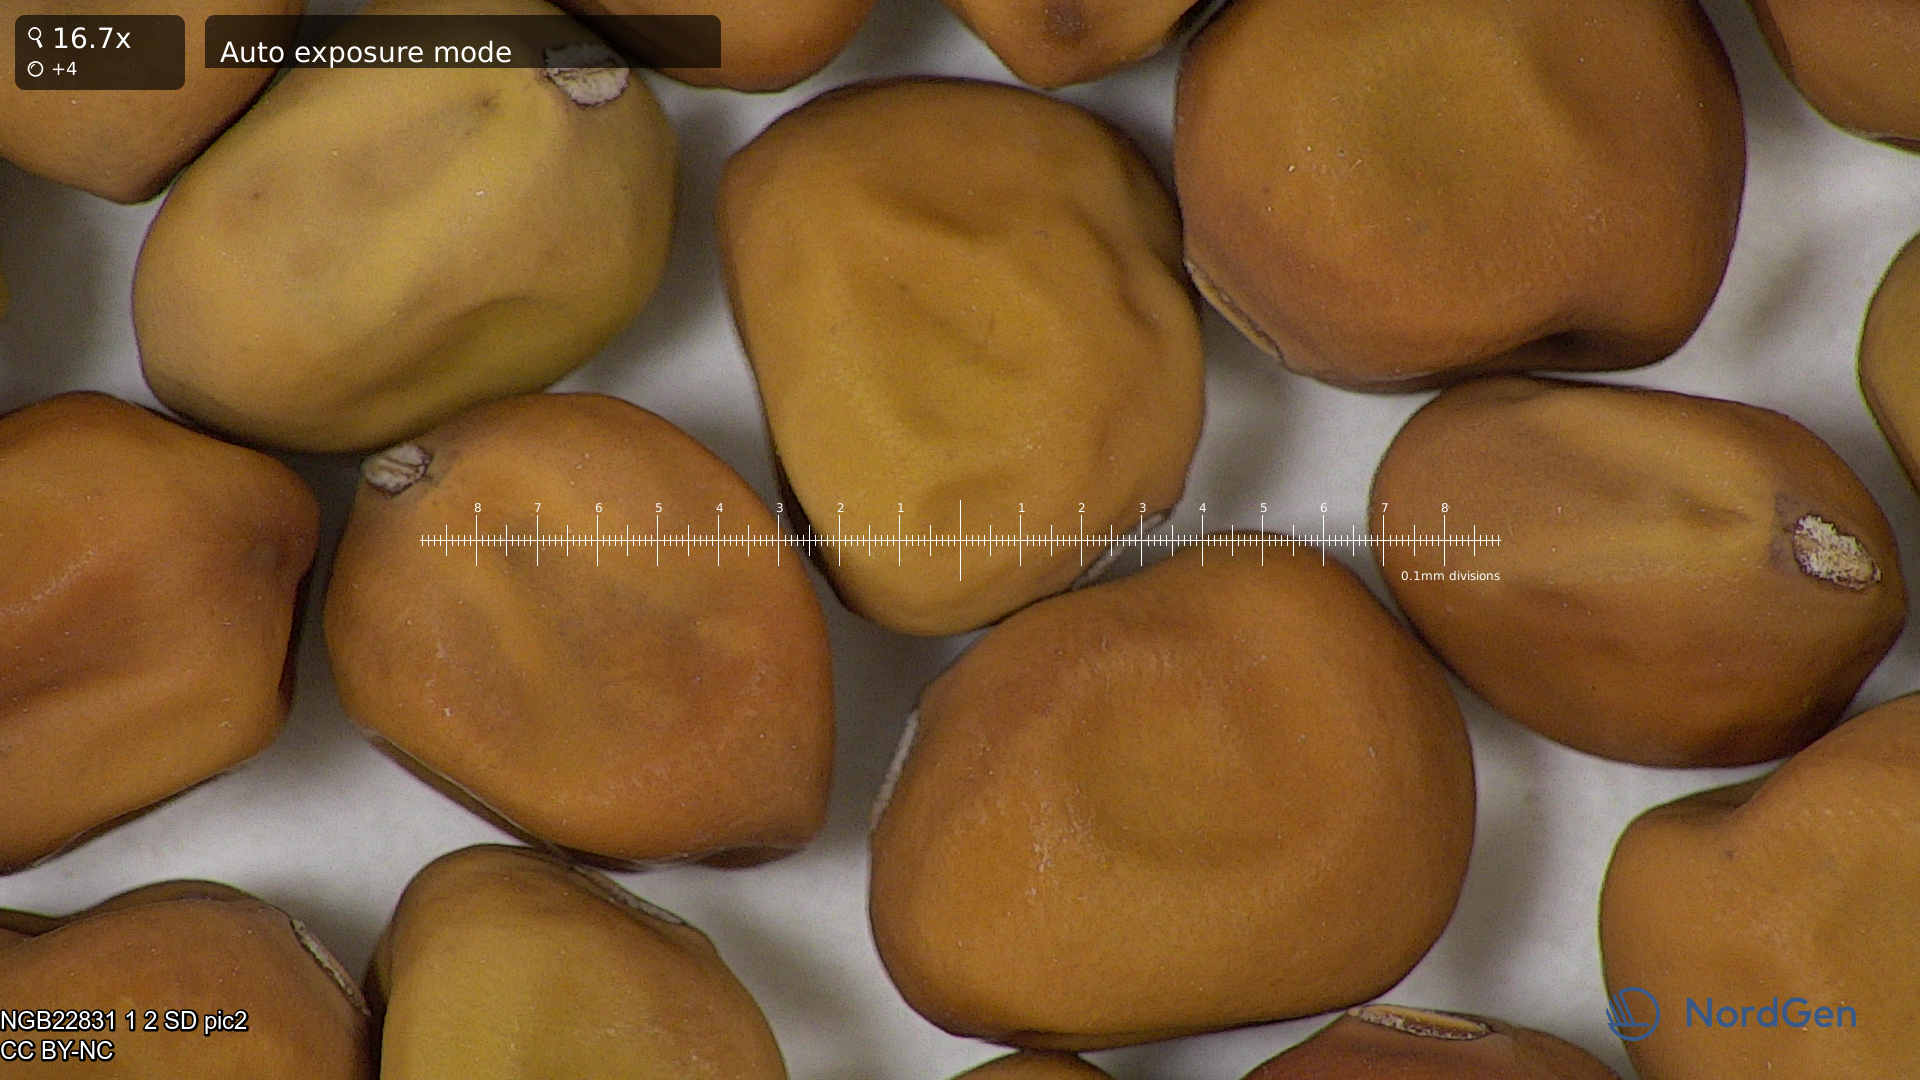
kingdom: Plantae
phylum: Tracheophyta
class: Magnoliopsida
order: Fabales
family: Fabaceae
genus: Lathyrus
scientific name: Lathyrus oleraceus
